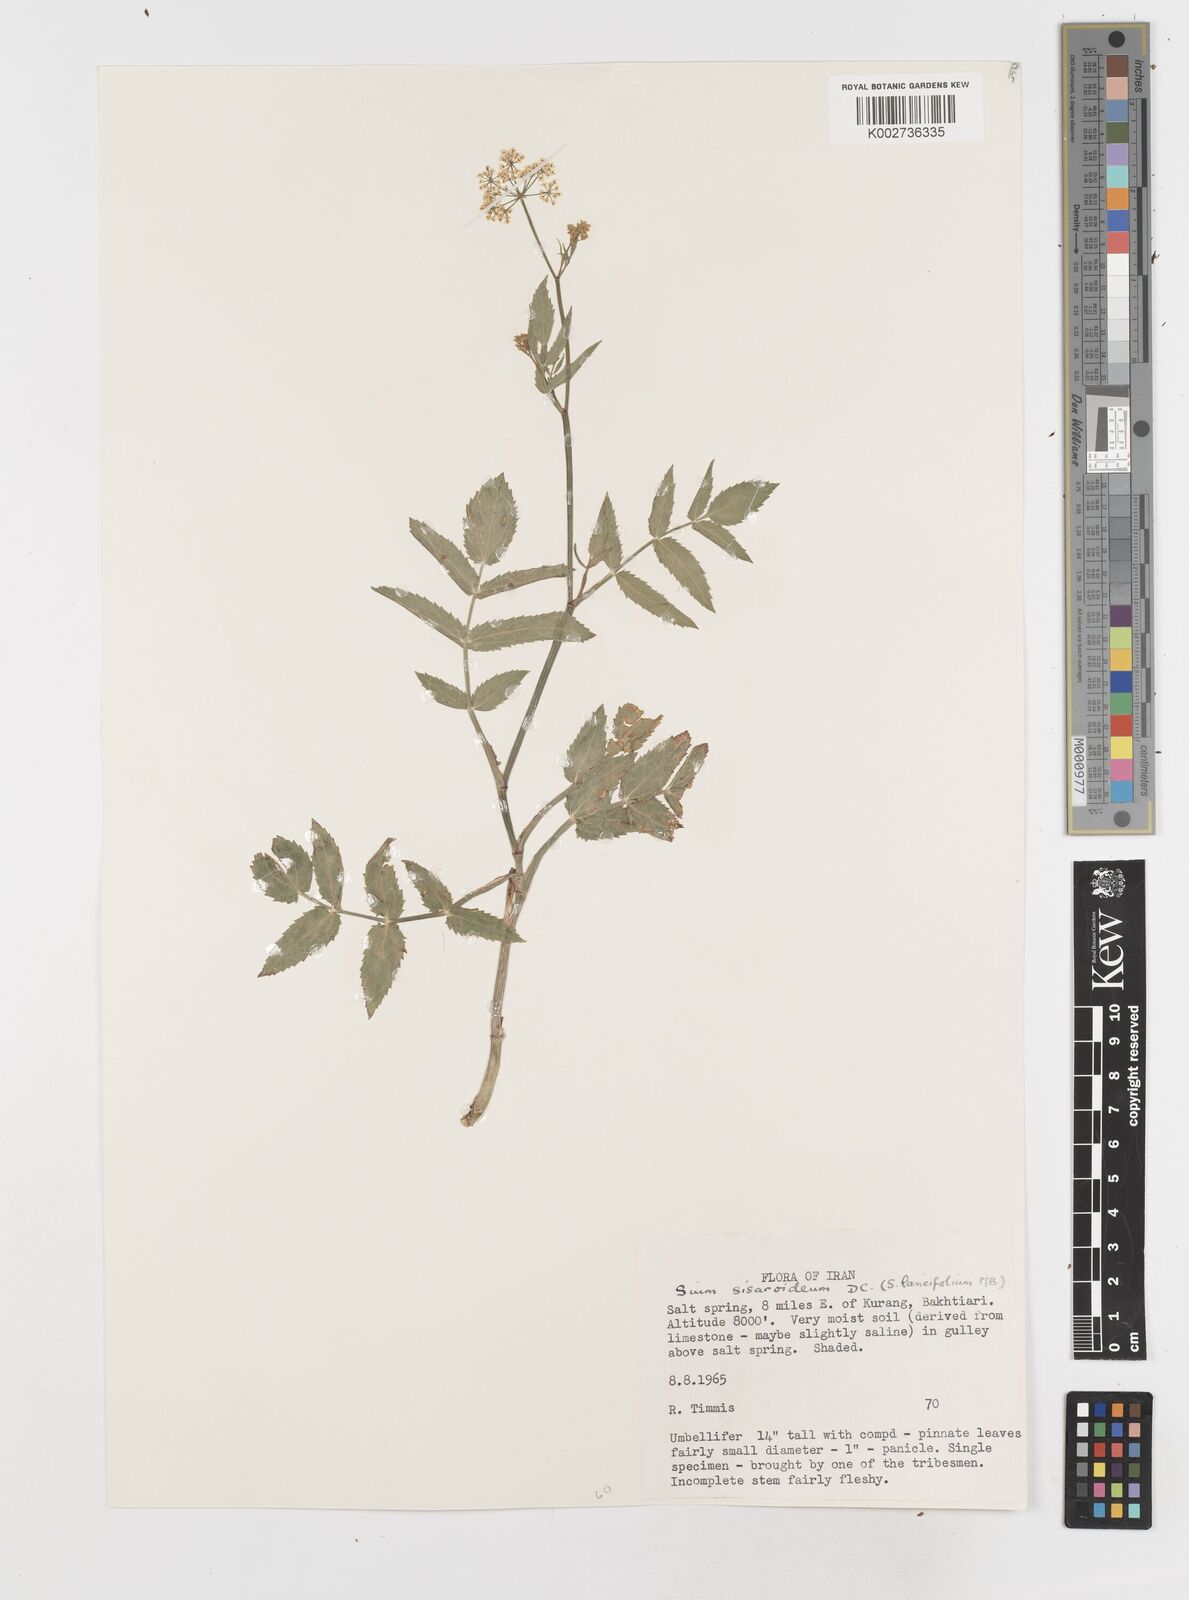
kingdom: Plantae
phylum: Tracheophyta
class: Magnoliopsida
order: Apiales
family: Apiaceae
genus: Sium
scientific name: Sium sisarum
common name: Skirret
